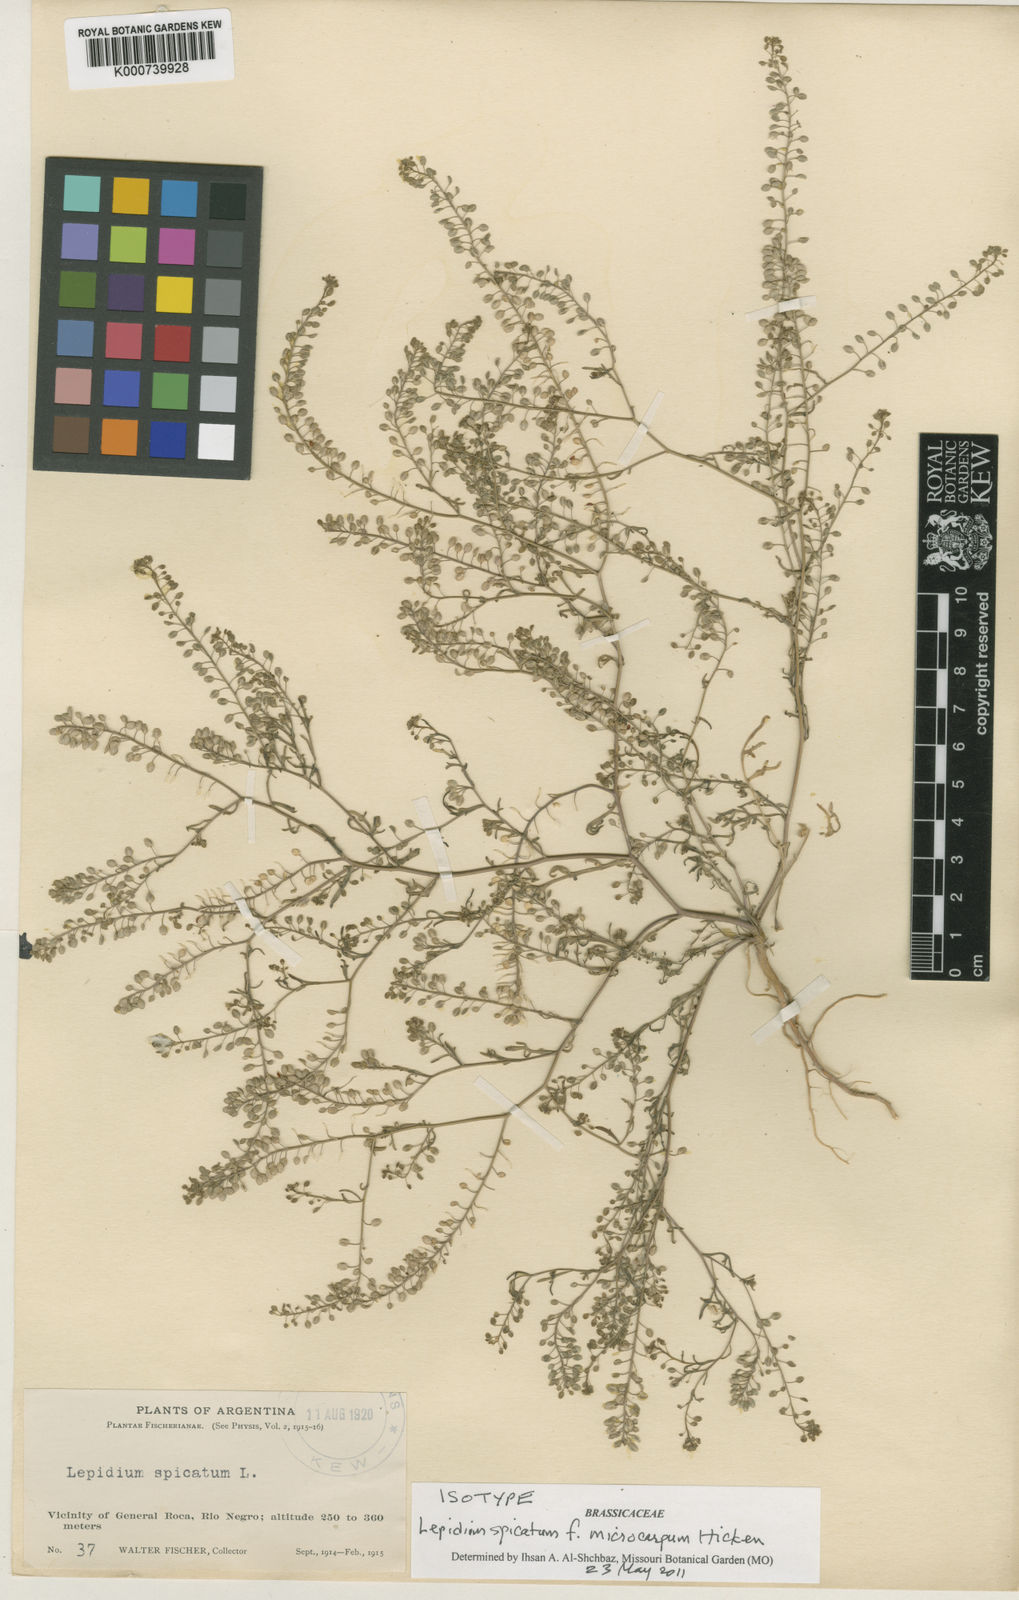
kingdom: Plantae
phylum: Tracheophyta
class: Magnoliopsida
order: Brassicales
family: Brassicaceae
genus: Lepidium
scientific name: Lepidium
